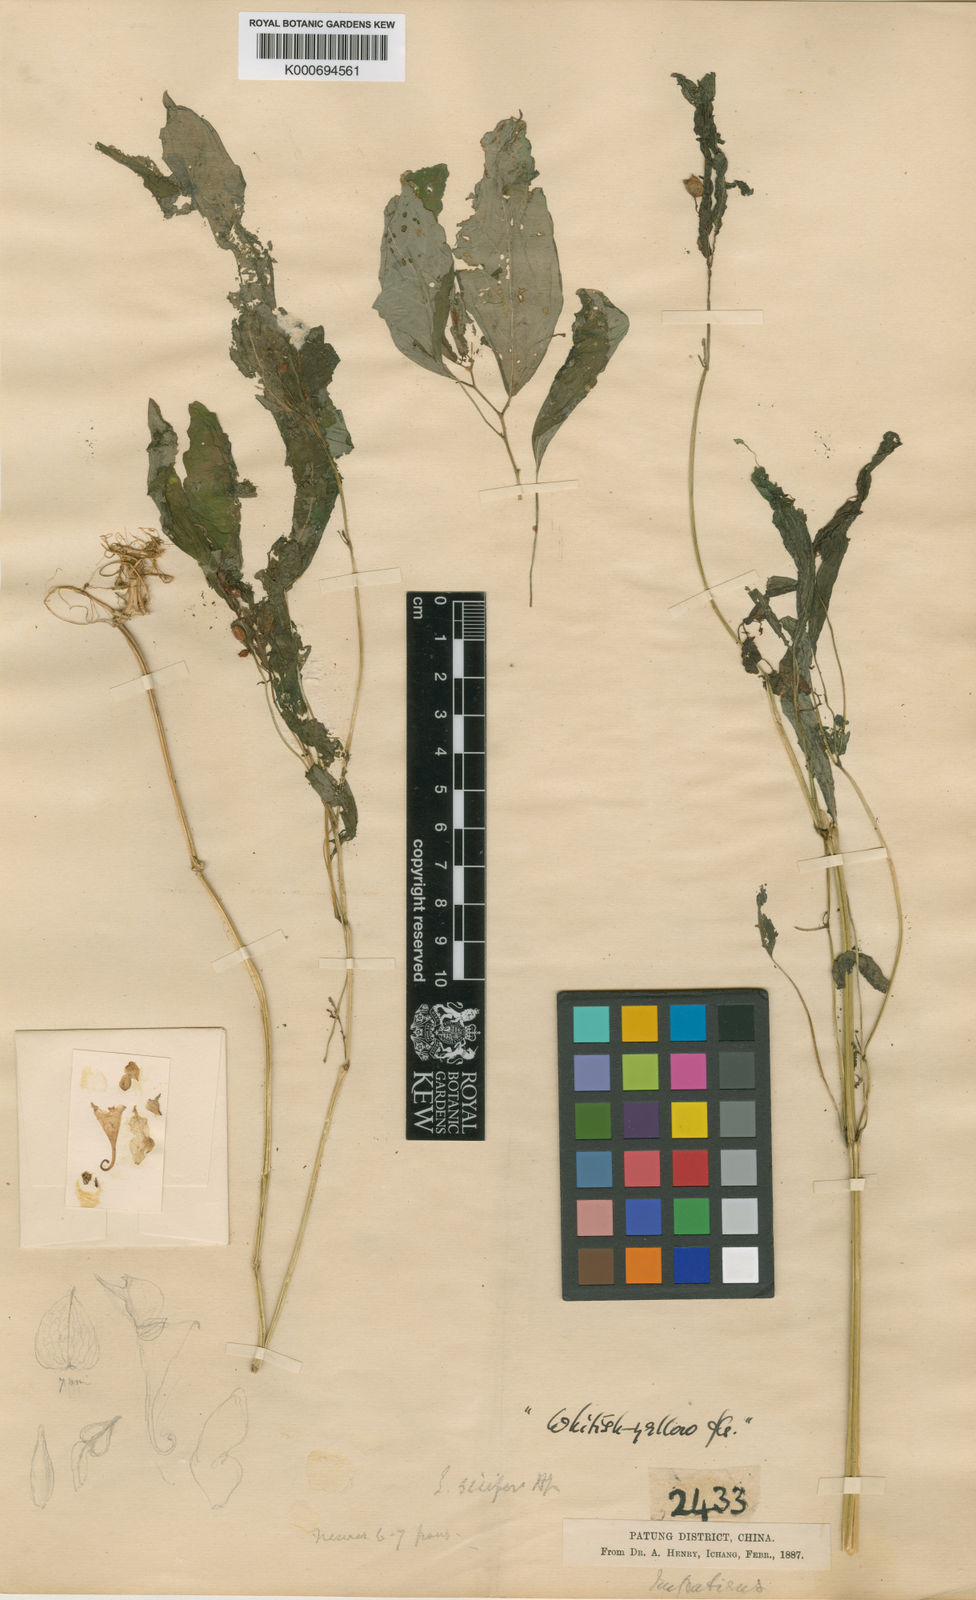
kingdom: Plantae
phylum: Tracheophyta
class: Magnoliopsida
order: Ericales
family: Balsaminaceae
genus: Impatiens
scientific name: Impatiens
